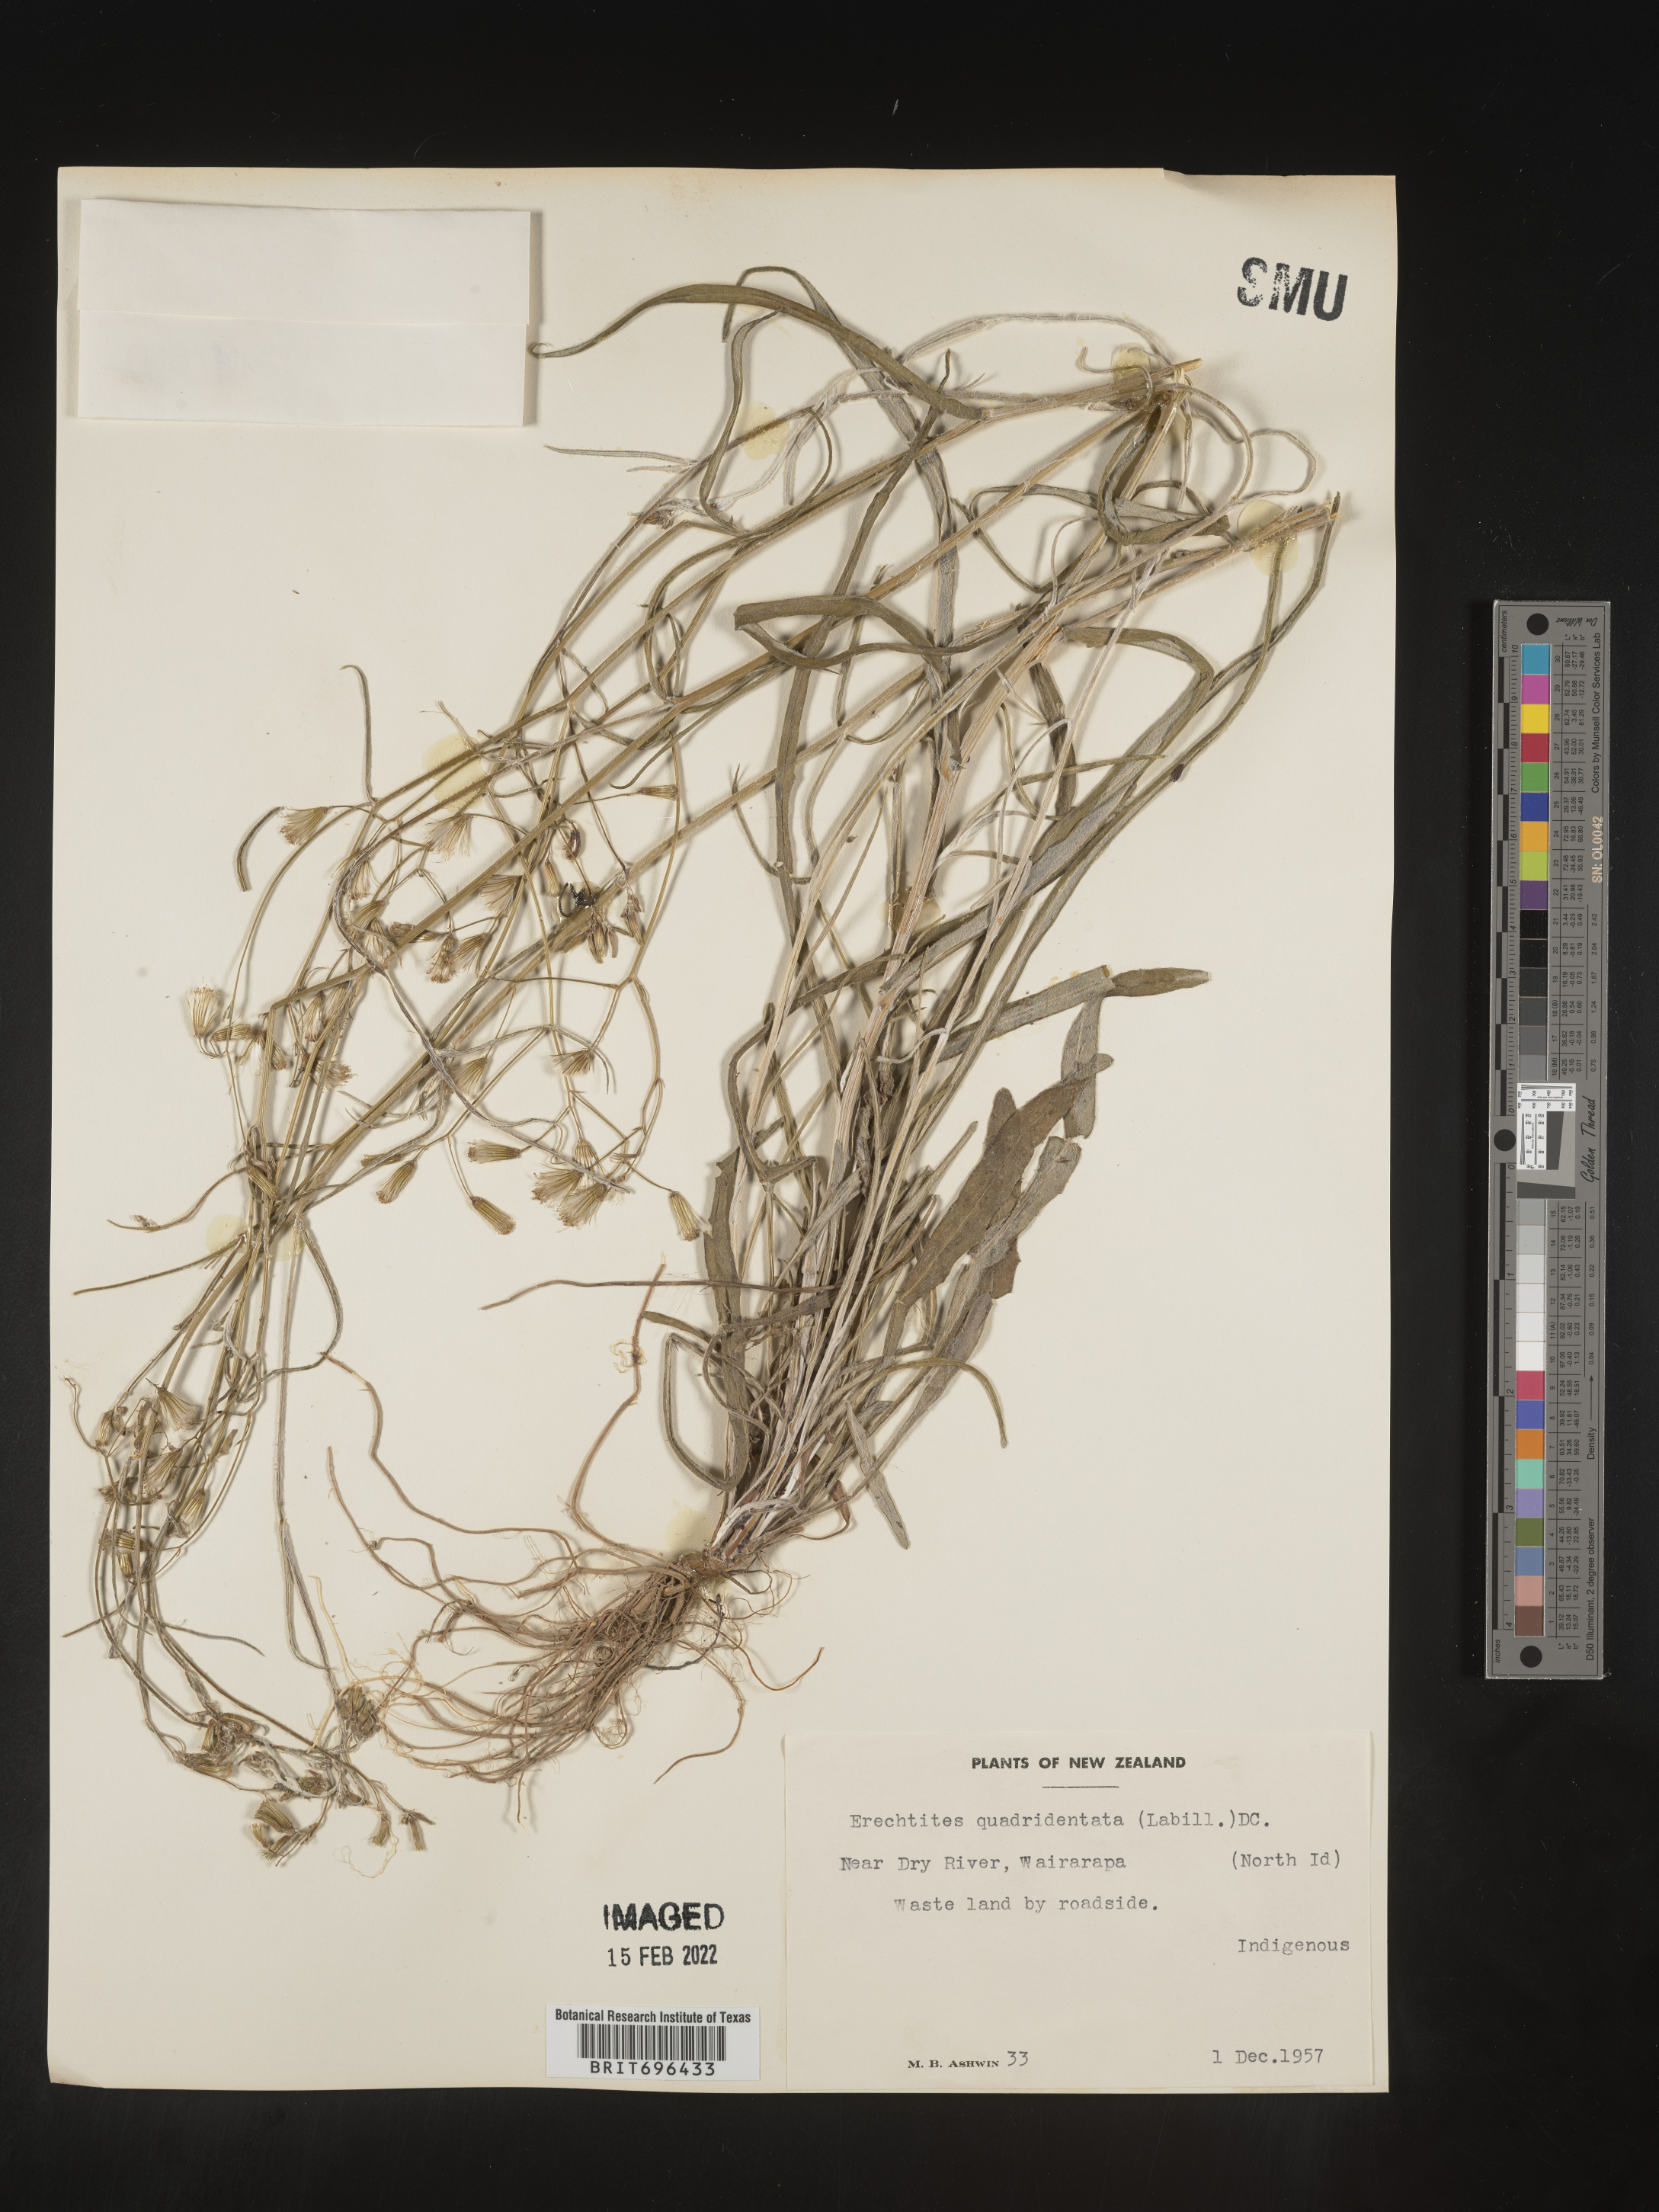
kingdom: Plantae
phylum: Tracheophyta
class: Magnoliopsida
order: Asterales
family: Asteraceae
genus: Erechtites
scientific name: Erechtites
